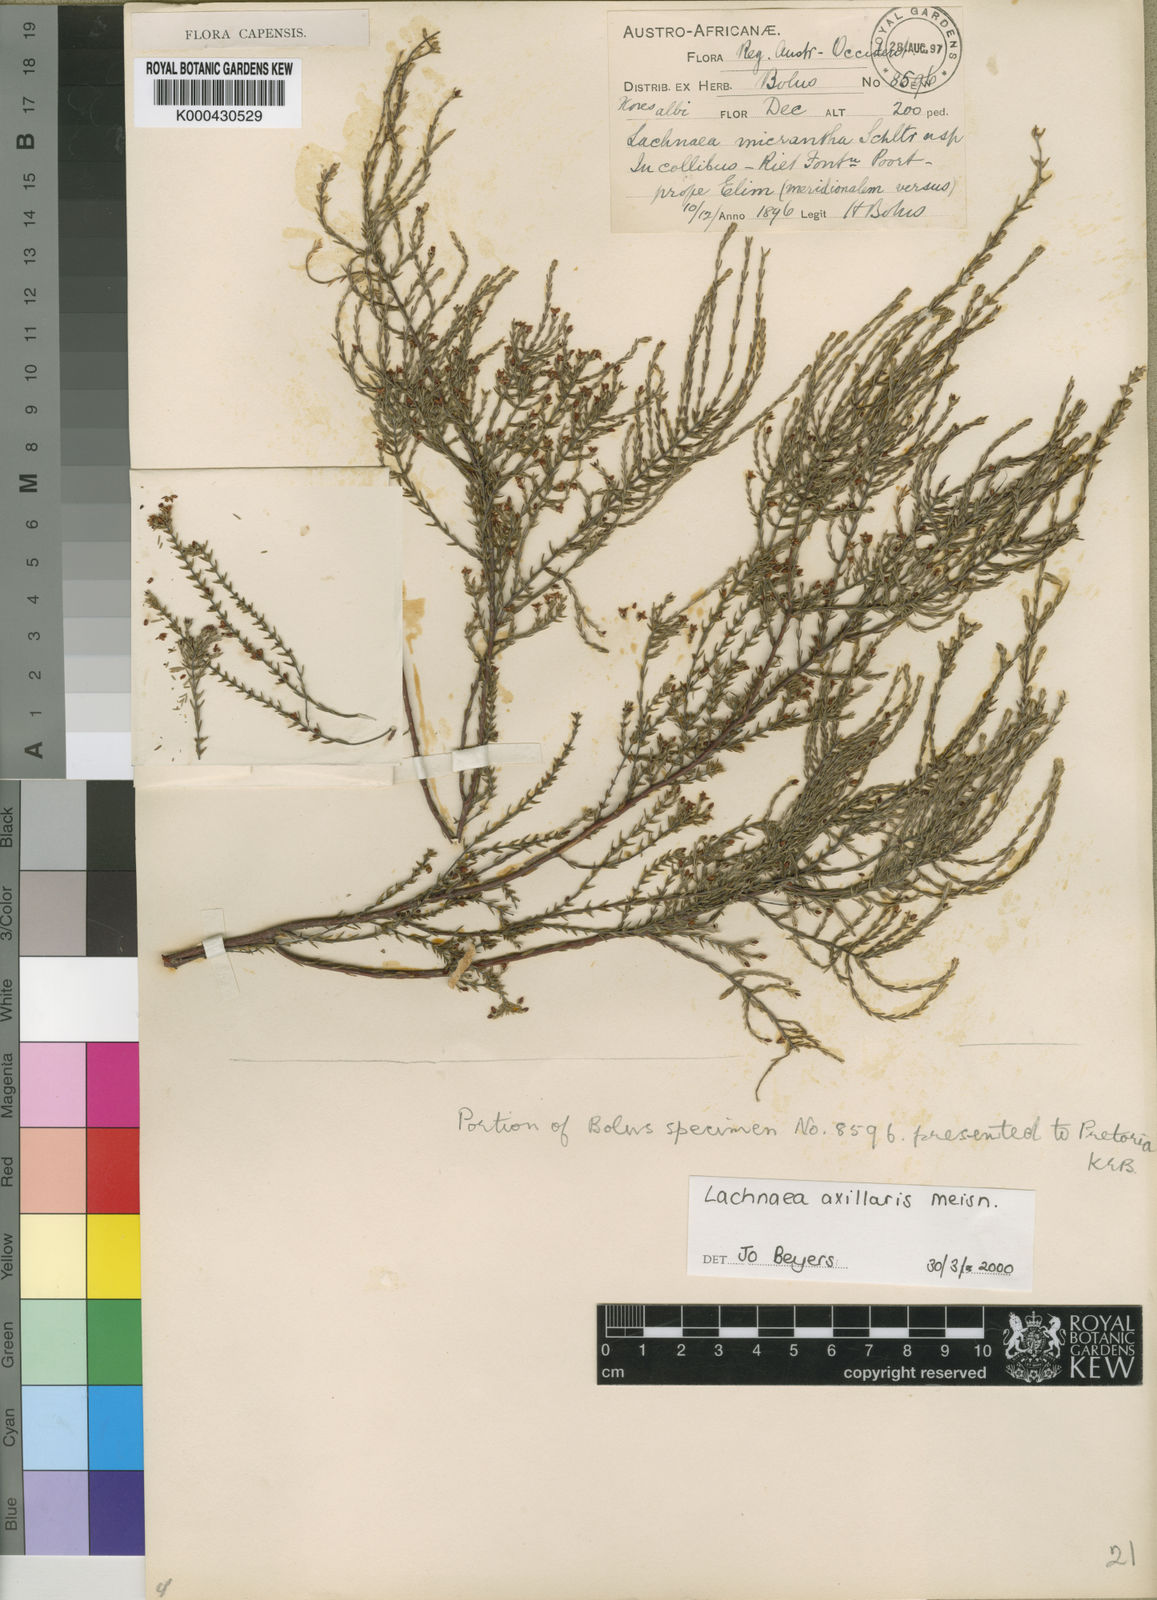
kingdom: Plantae
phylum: Tracheophyta
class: Magnoliopsida
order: Malvales
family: Thymelaeaceae
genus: Lachnaea
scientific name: Lachnaea axillaris
